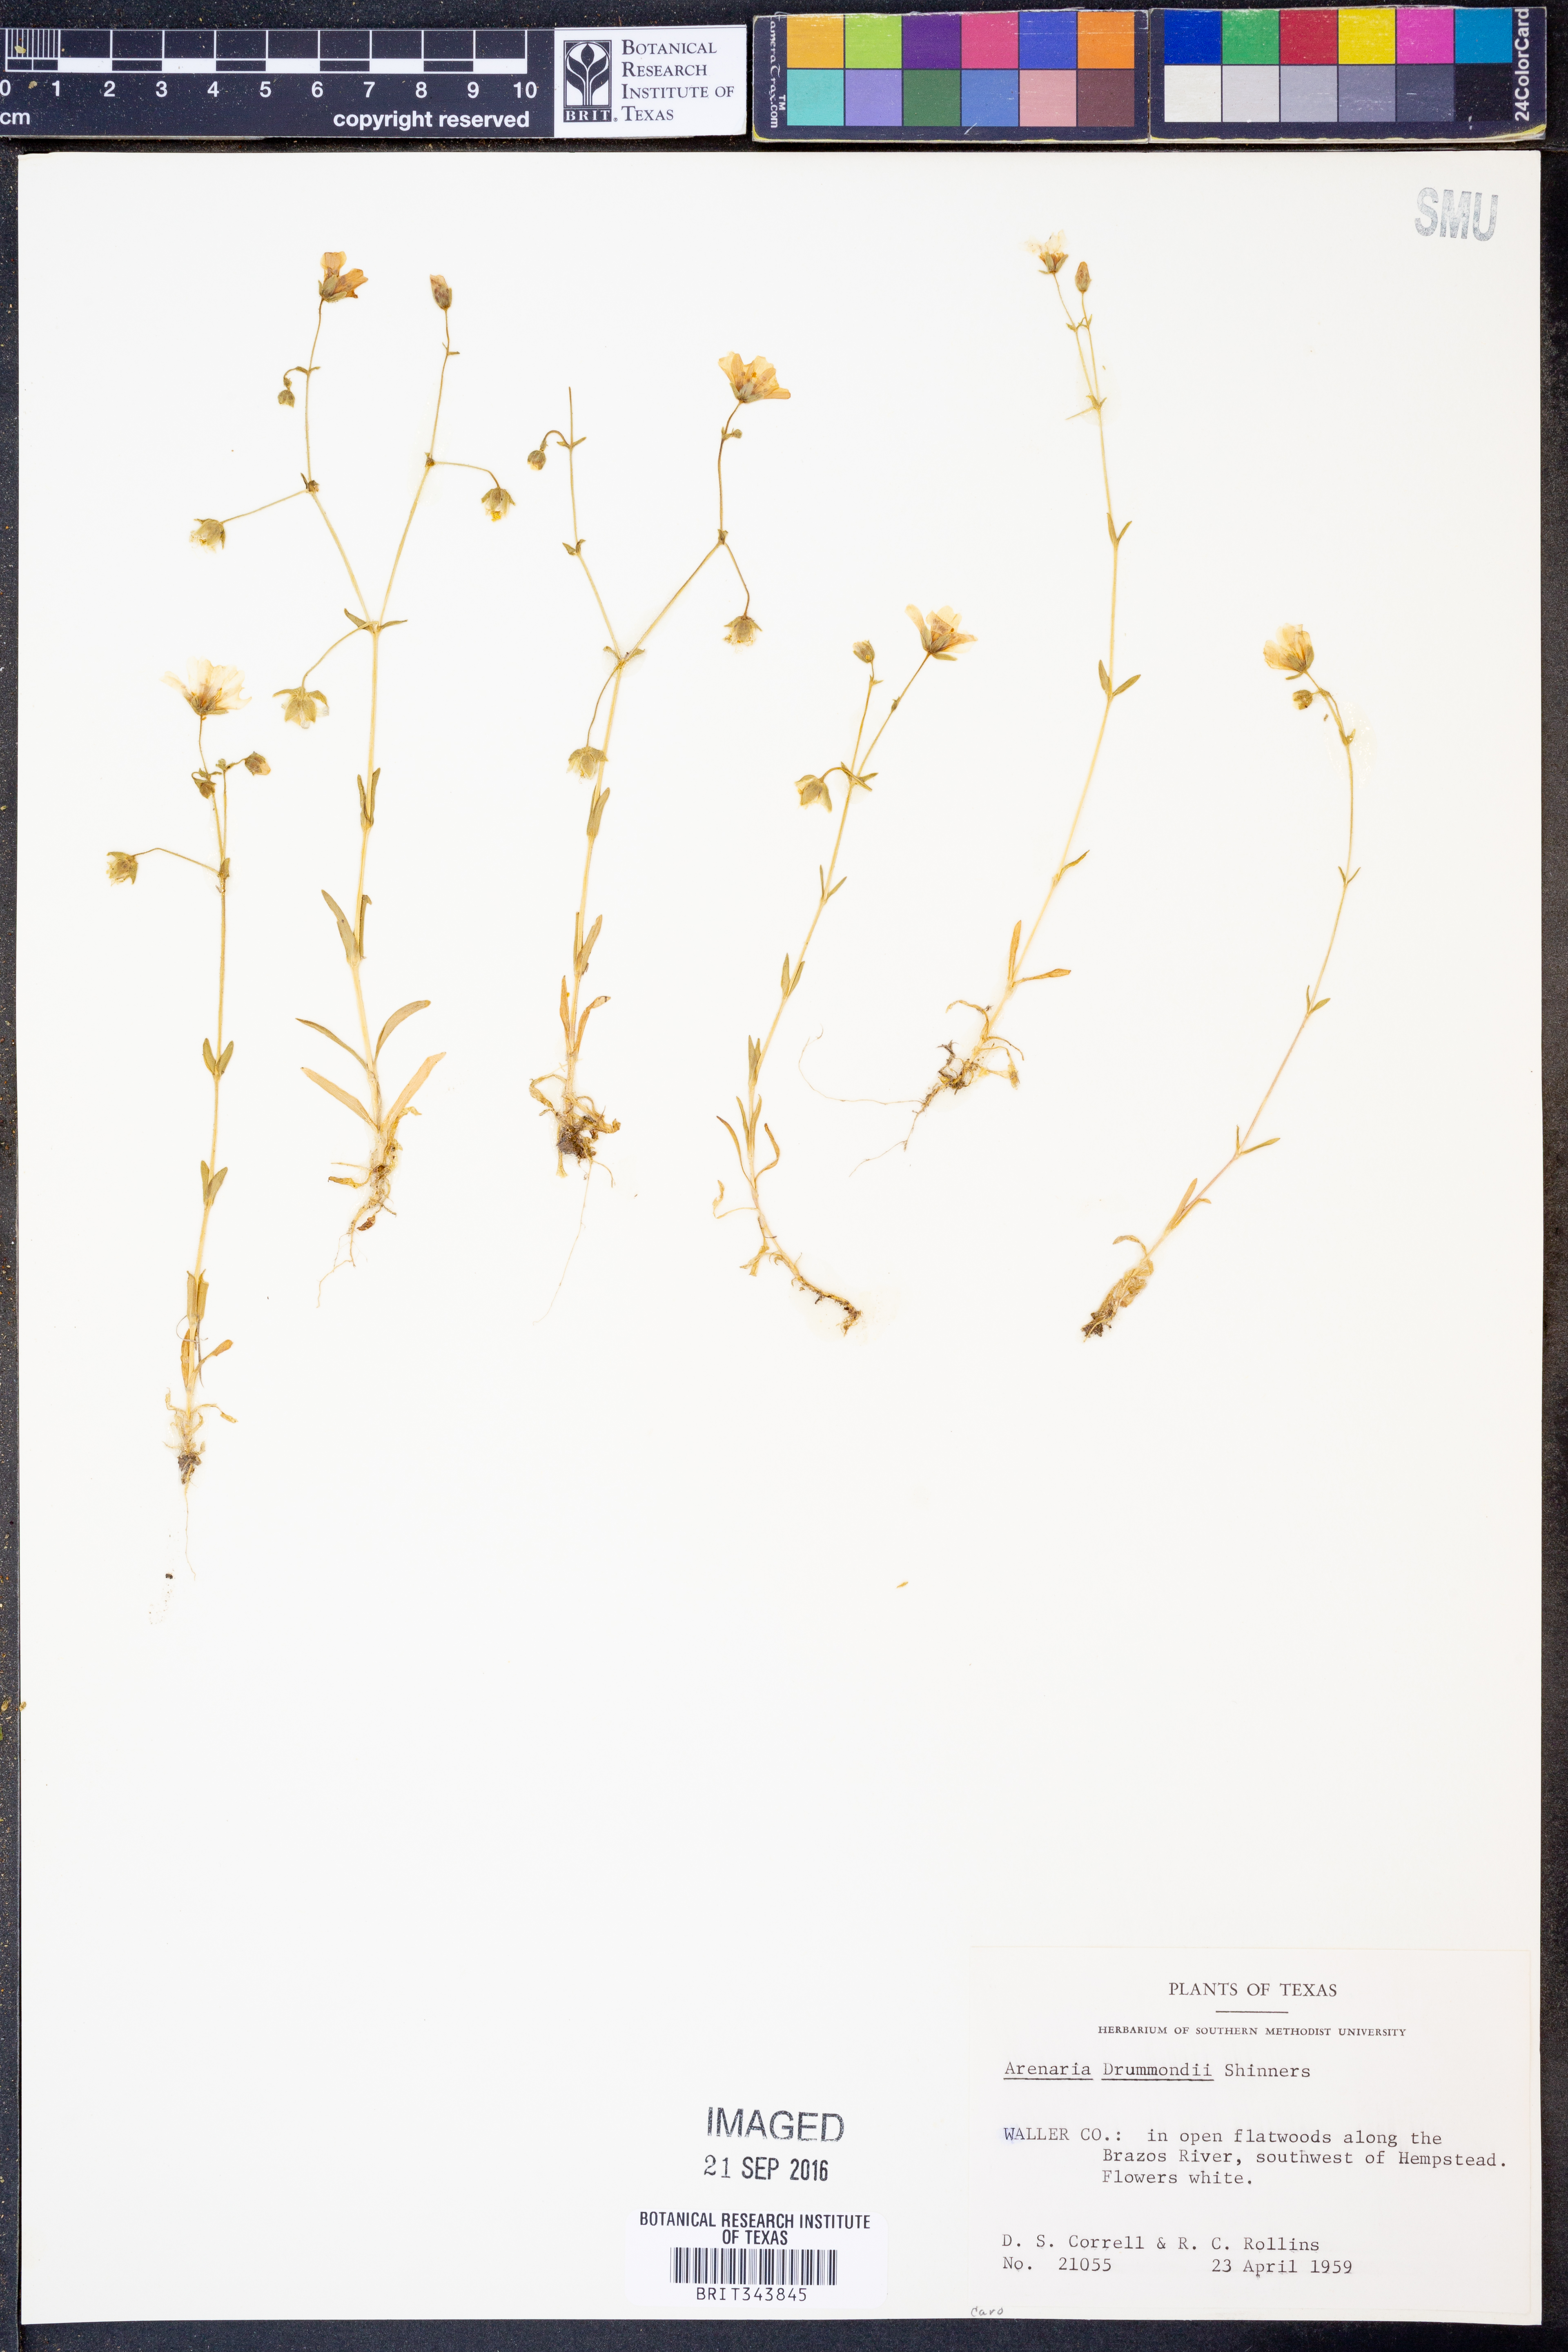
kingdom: Plantae
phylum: Tracheophyta
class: Magnoliopsida
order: Caryophyllales
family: Caryophyllaceae
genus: Geocarpon
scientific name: Geocarpon nuttallii
